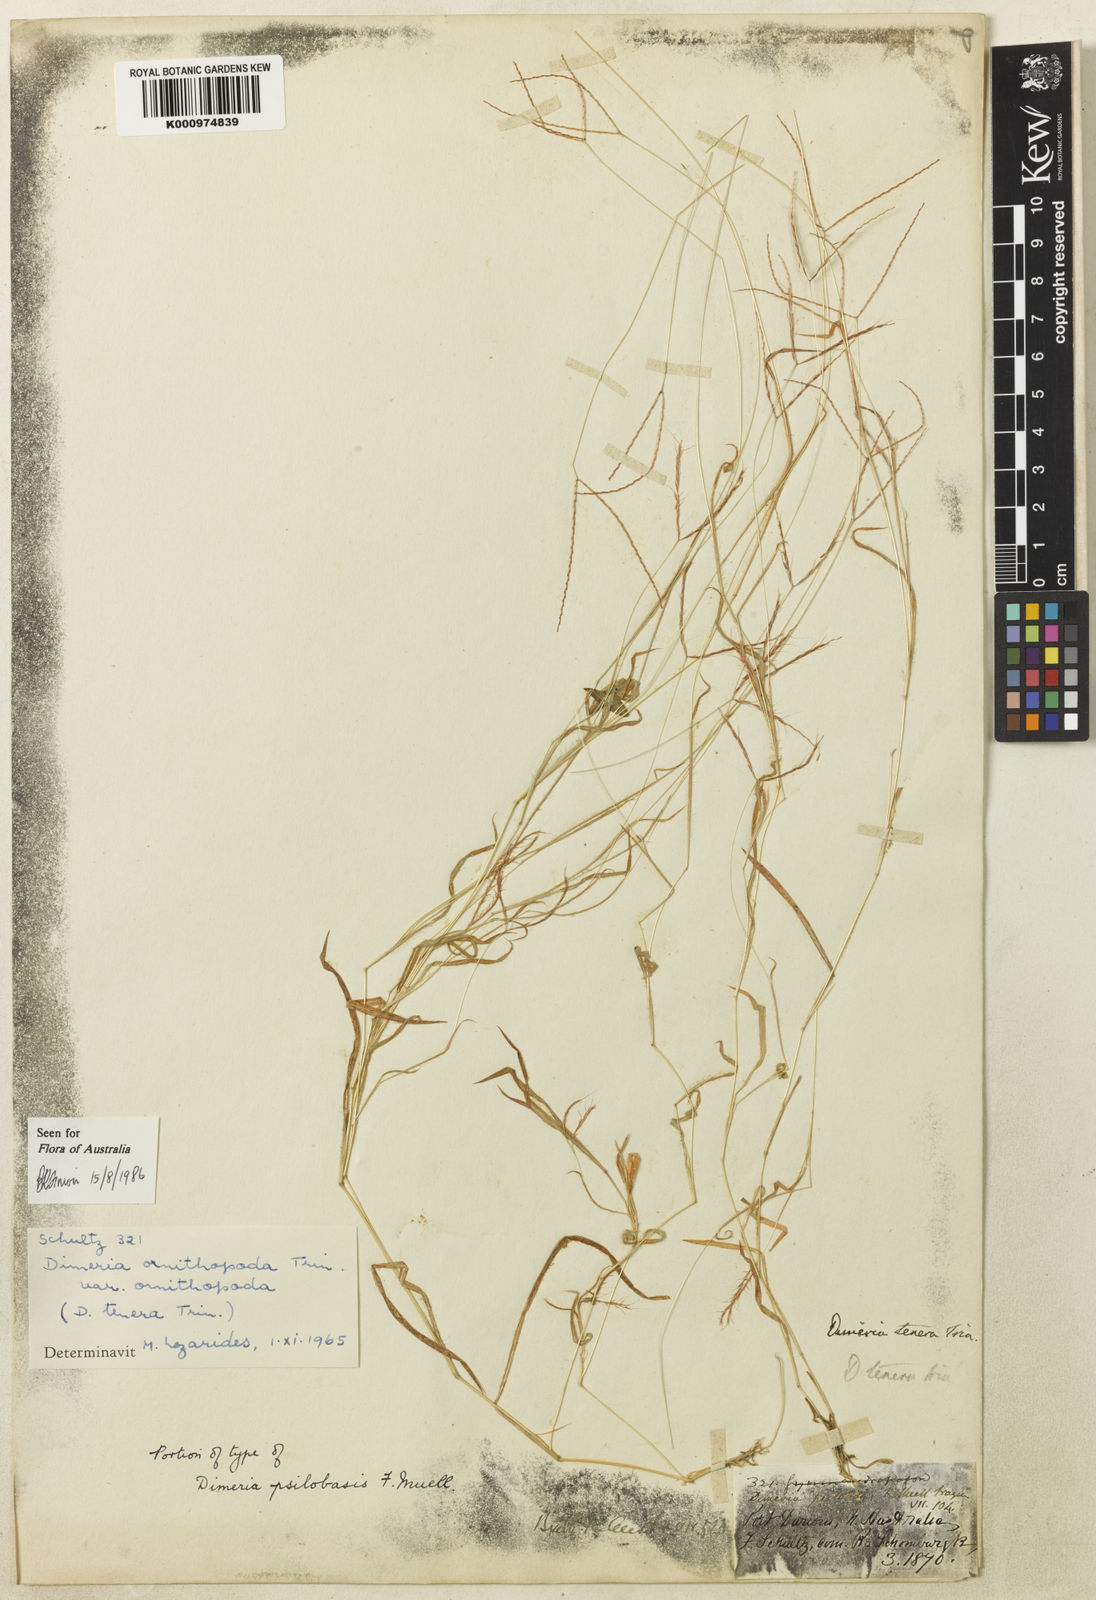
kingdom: Plantae
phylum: Tracheophyta
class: Liliopsida
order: Poales
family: Poaceae
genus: Dimeria
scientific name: Dimeria ornithopoda
